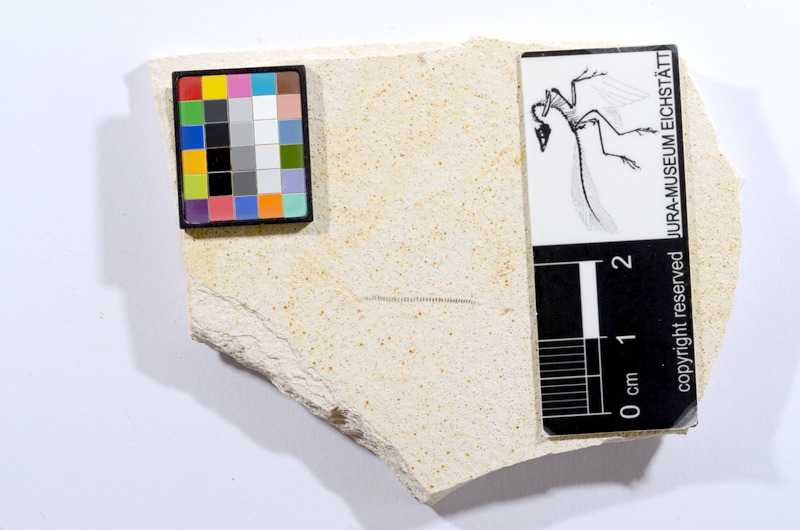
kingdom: Animalia
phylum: Chordata
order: Salmoniformes
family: Orthogonikleithridae
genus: Orthogonikleithrus
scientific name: Orthogonikleithrus hoelli
